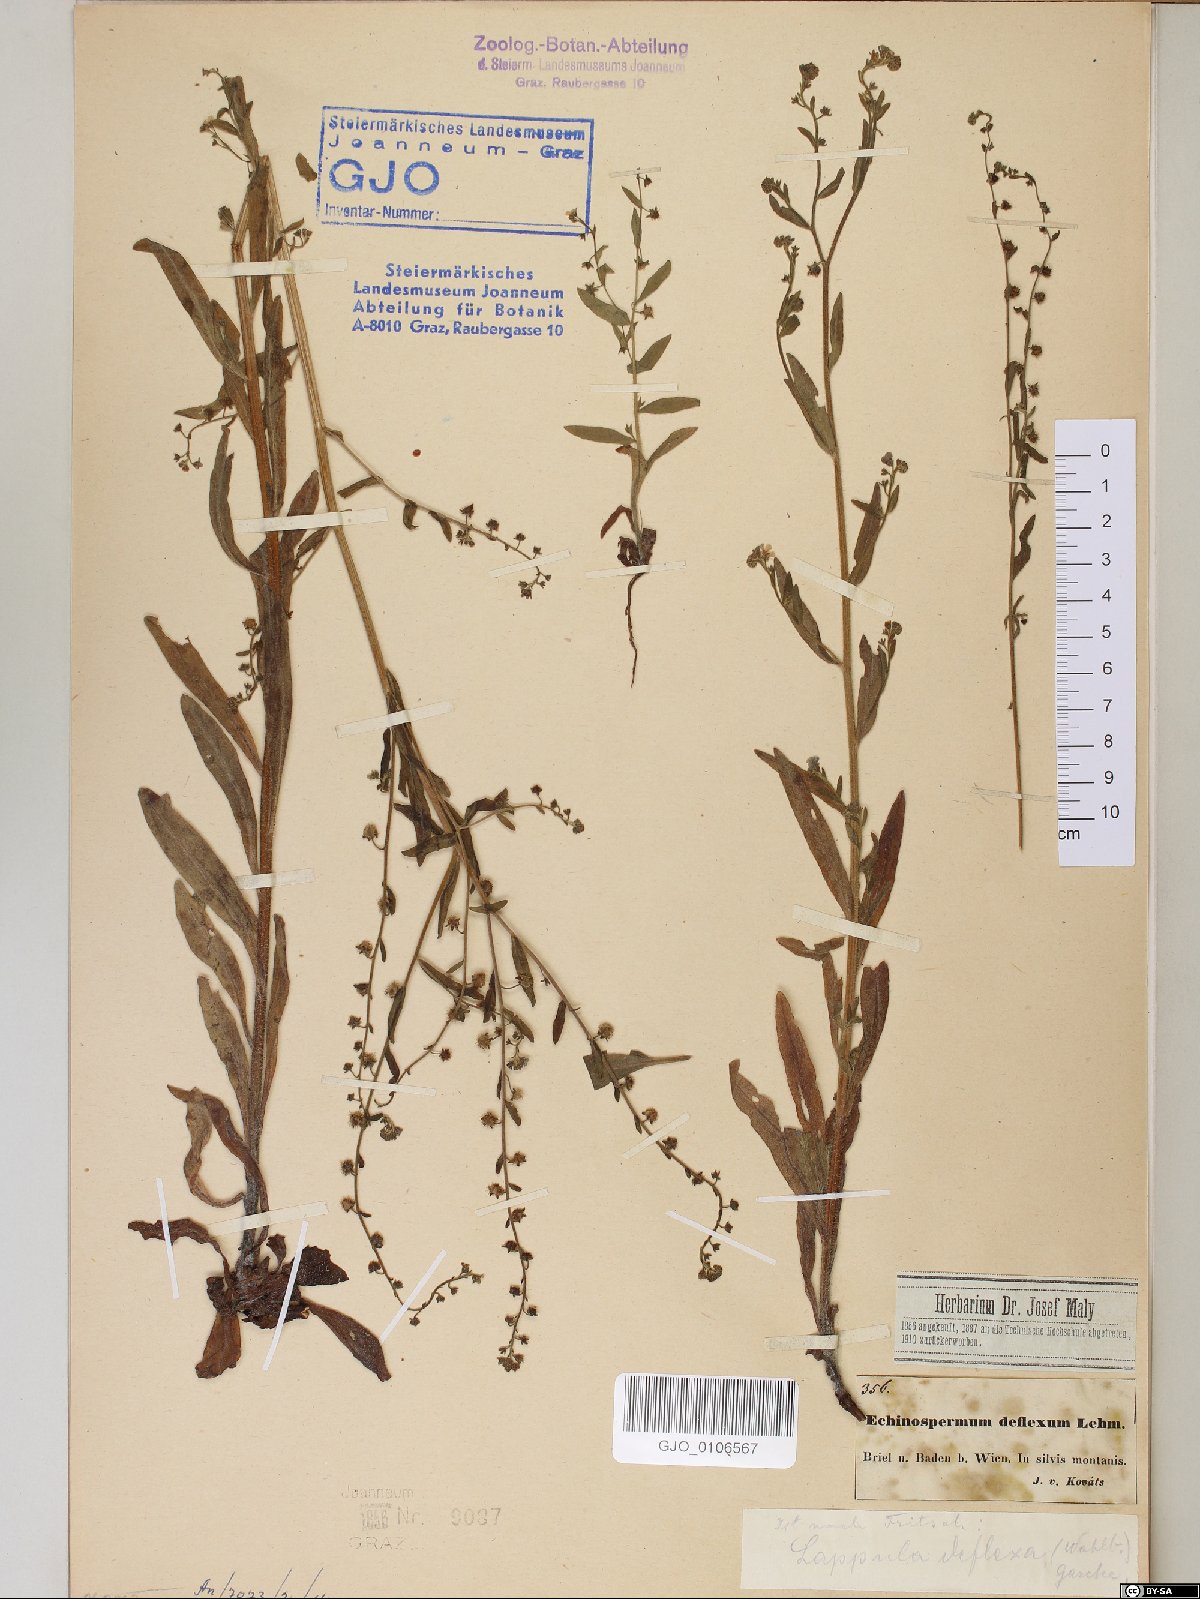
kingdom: Plantae
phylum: Tracheophyta
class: Magnoliopsida
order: Boraginales
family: Boraginaceae
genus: Hackelia
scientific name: Hackelia deflexa
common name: Nodding stickseed
